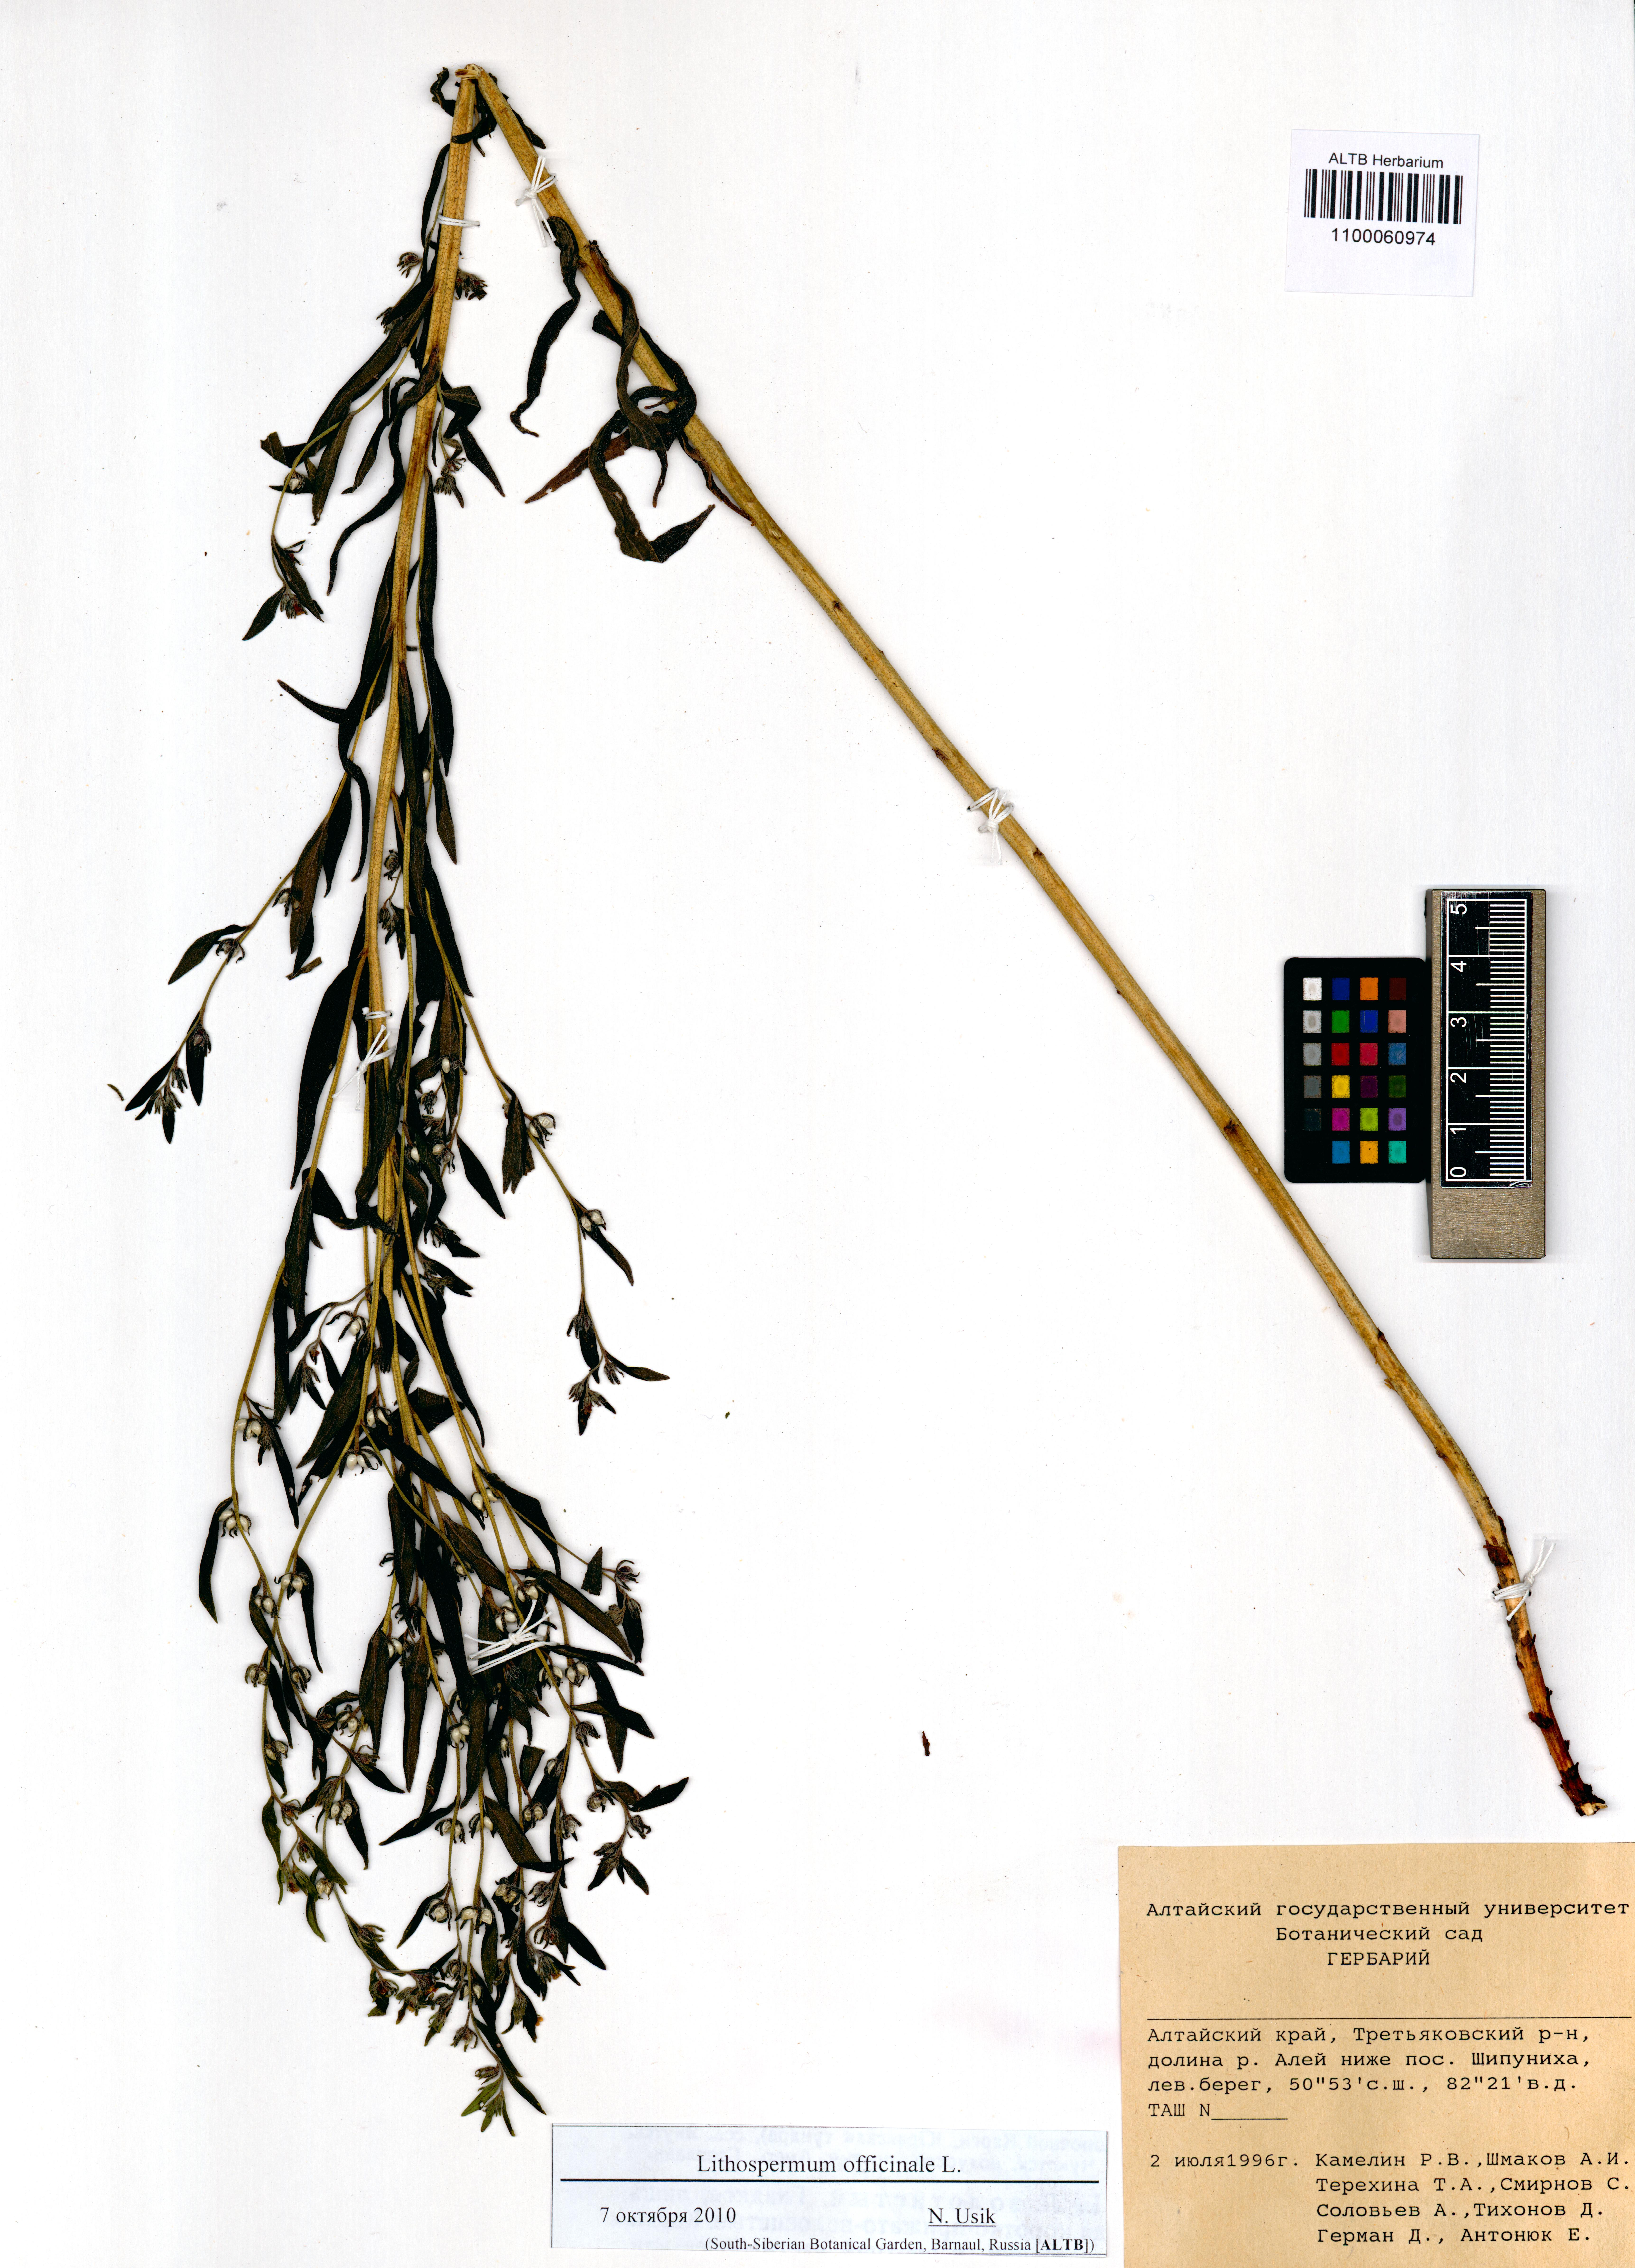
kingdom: Plantae
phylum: Tracheophyta
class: Magnoliopsida
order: Boraginales
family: Boraginaceae
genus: Lithospermum
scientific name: Lithospermum officinale
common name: Common gromwell
